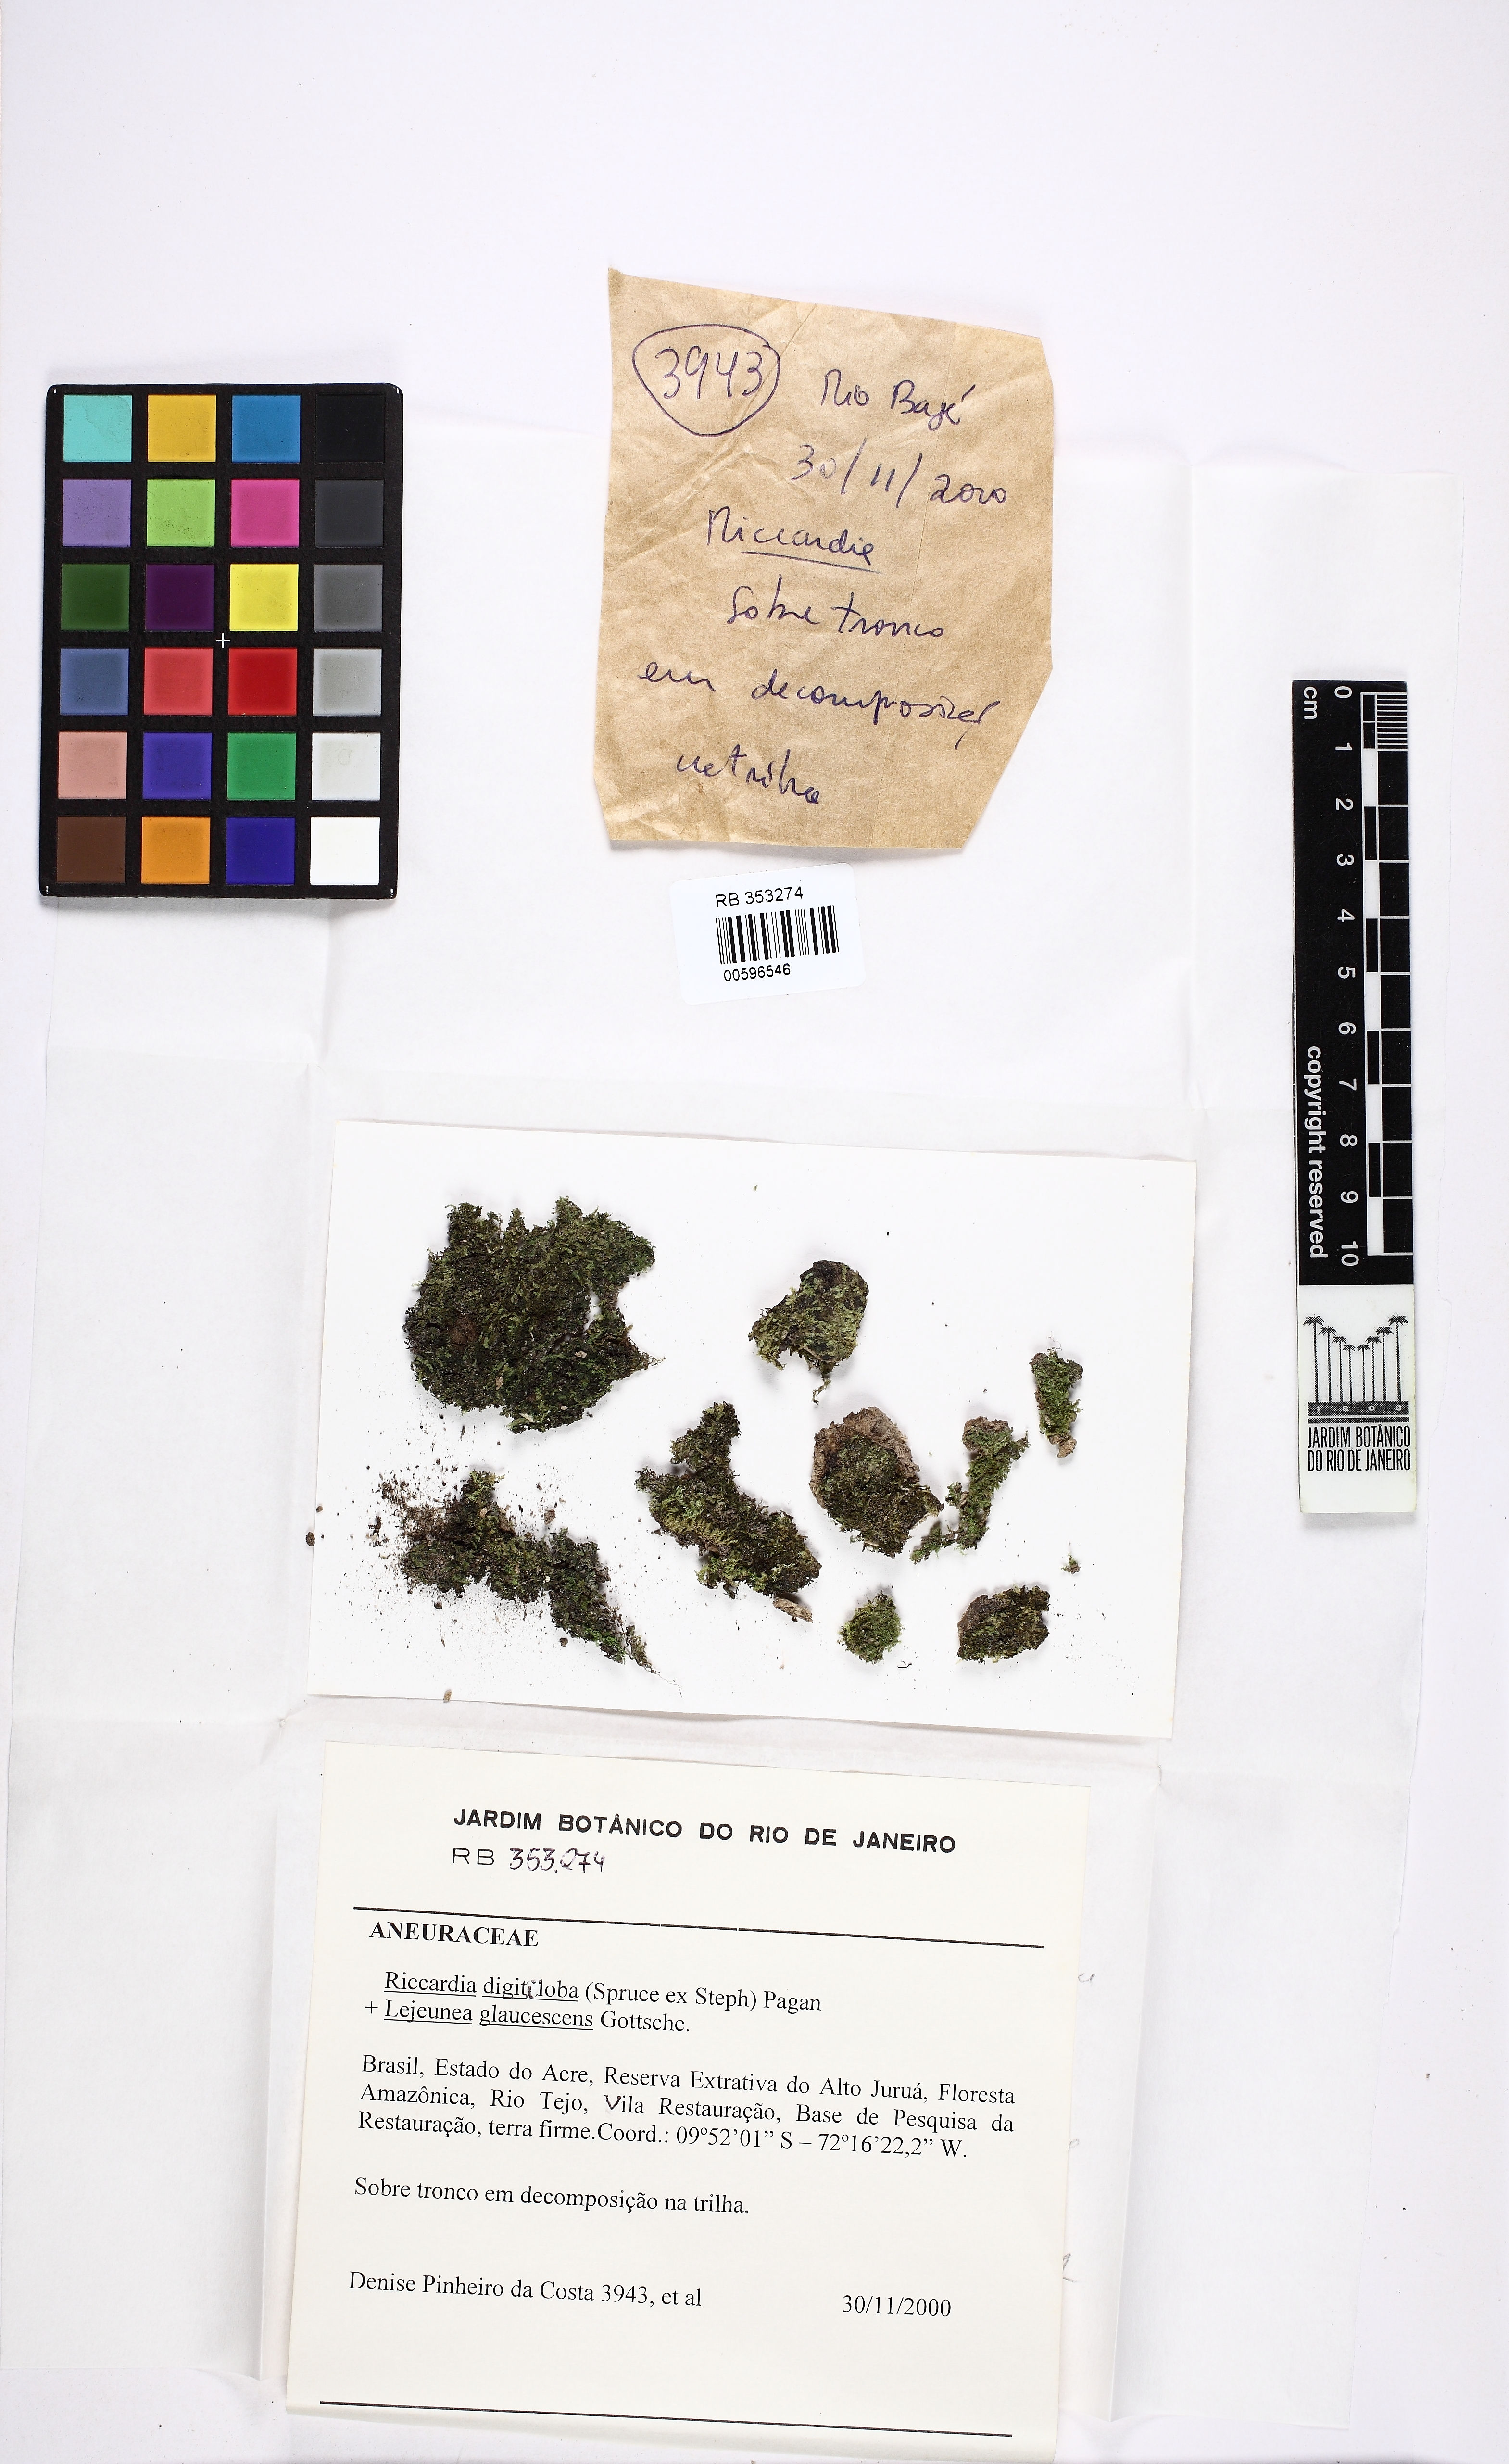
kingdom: Plantae
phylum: Marchantiophyta
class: Jungermanniopsida
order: Metzgeriales
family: Aneuraceae
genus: Riccardia
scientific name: Riccardia digitiloba
